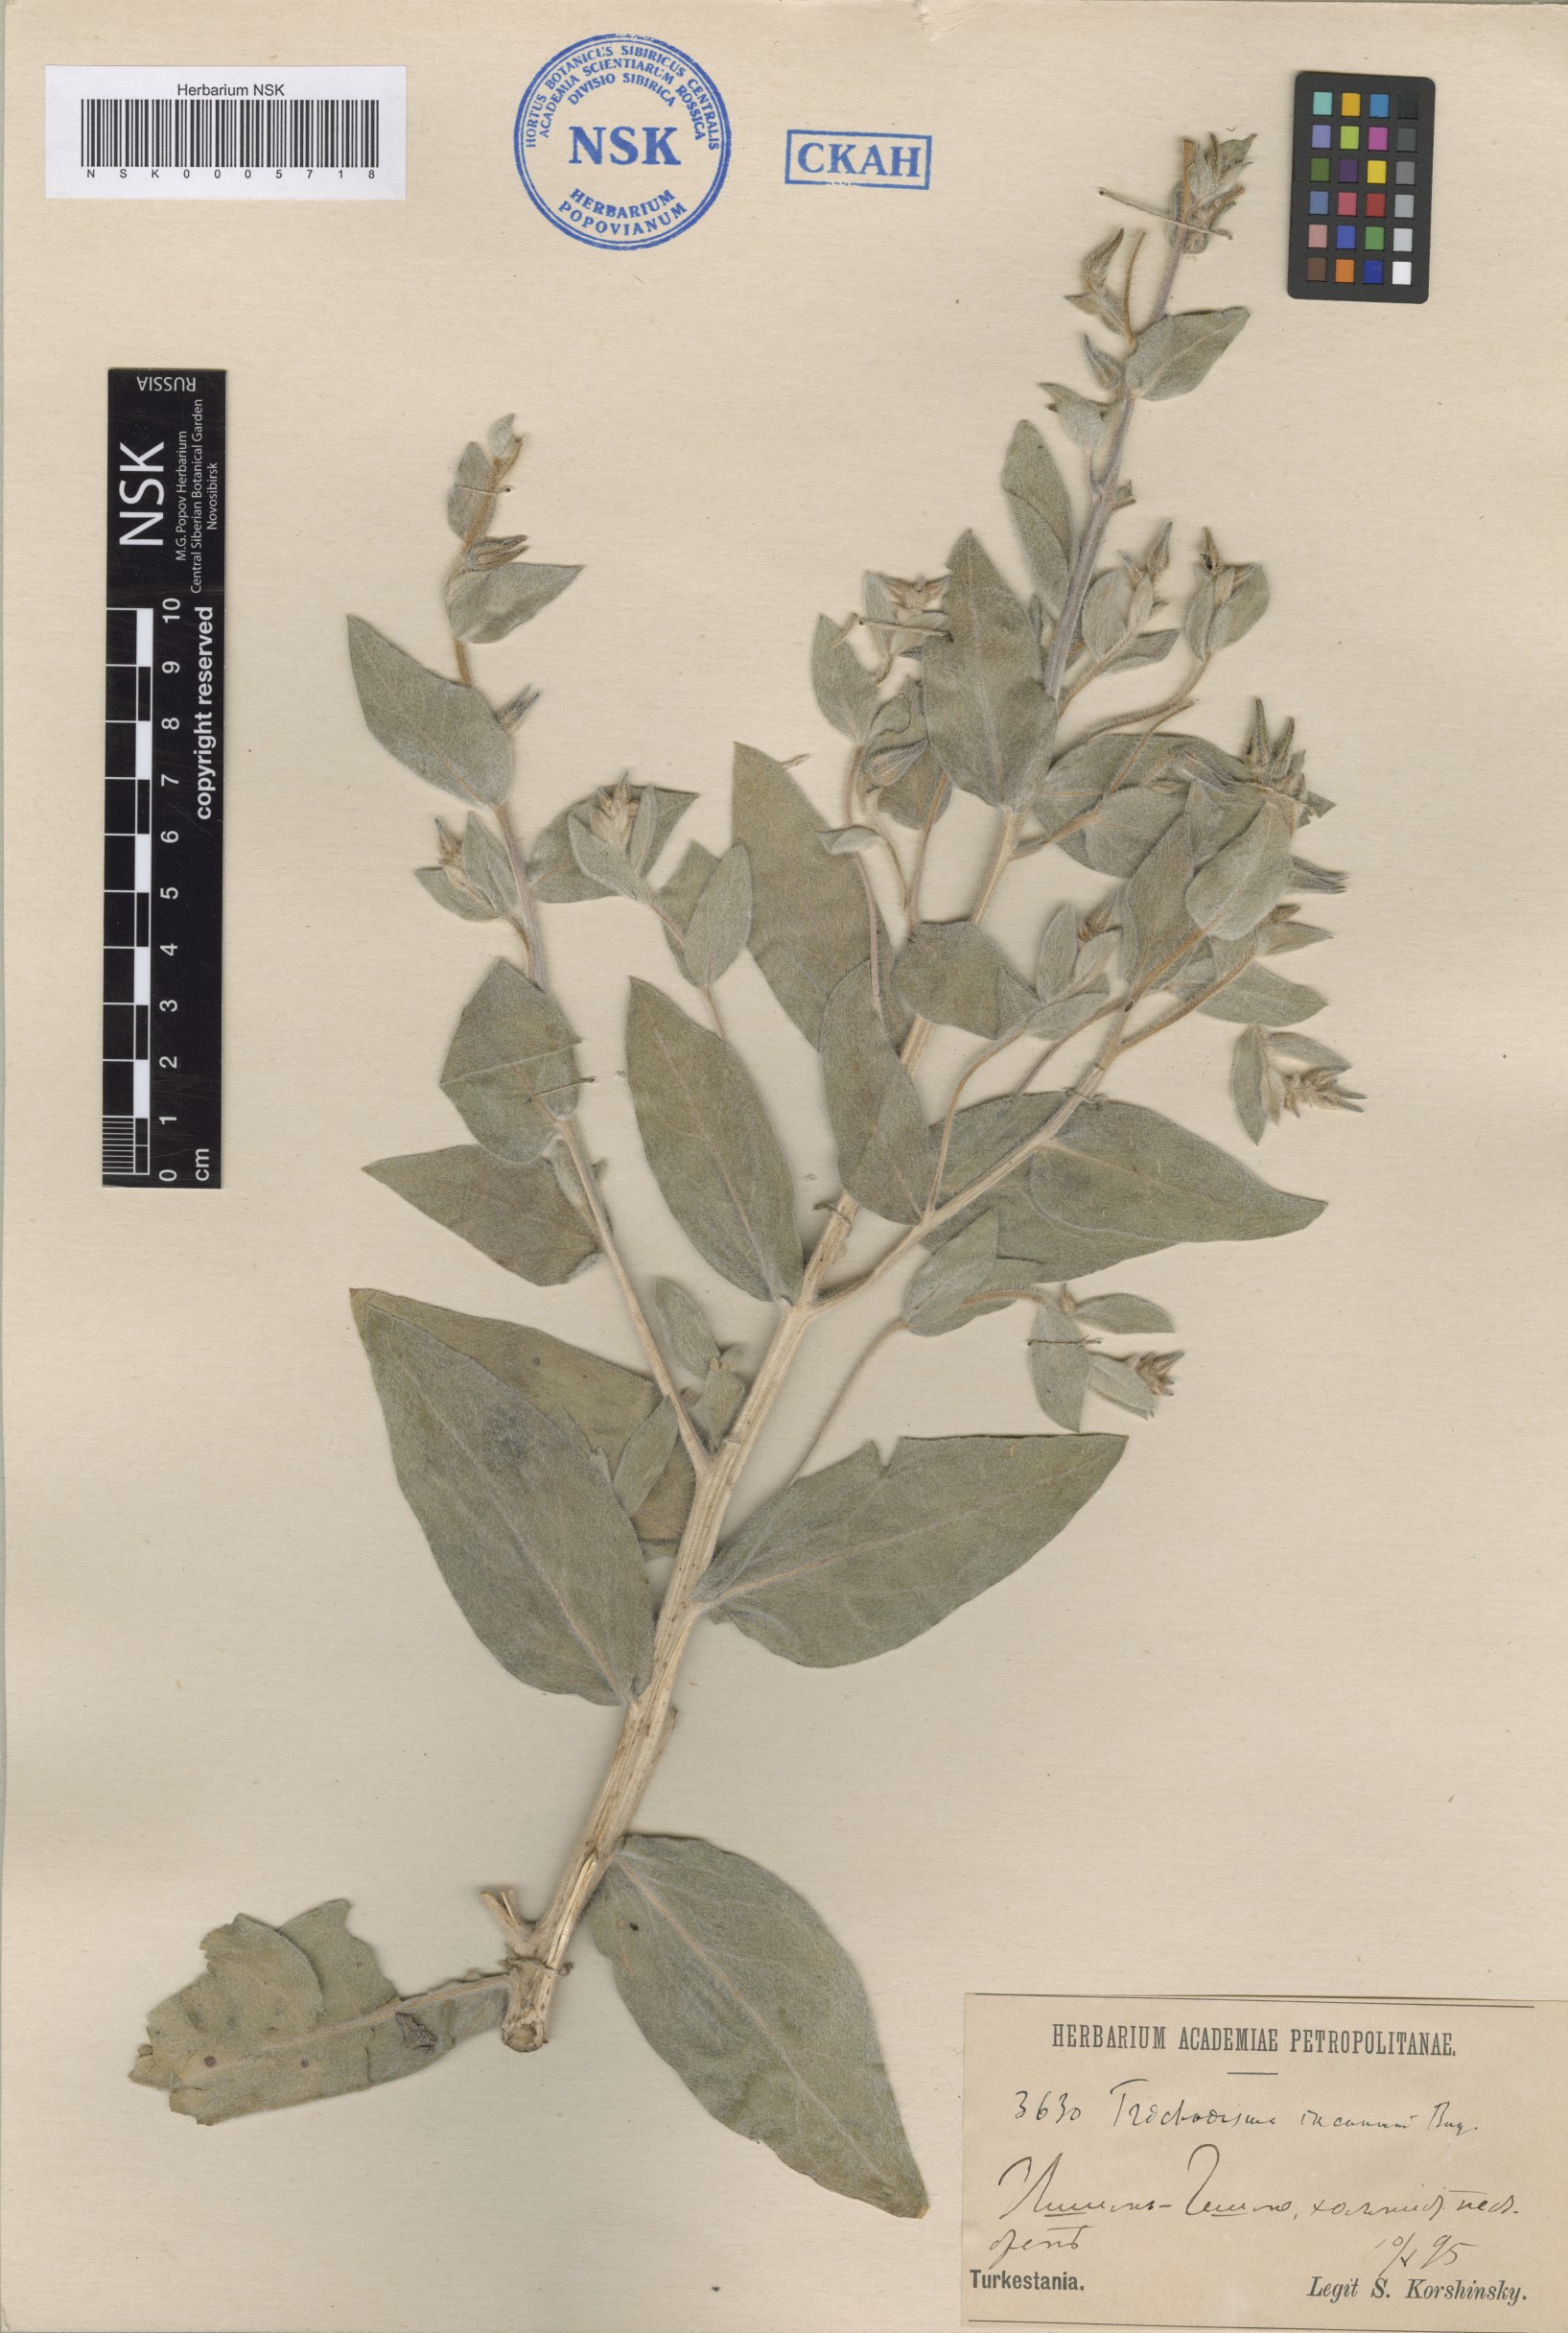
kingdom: Plantae
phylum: Tracheophyta
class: Magnoliopsida
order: Boraginales
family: Boraginaceae
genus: Trichodesma
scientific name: Trichodesma incanum
